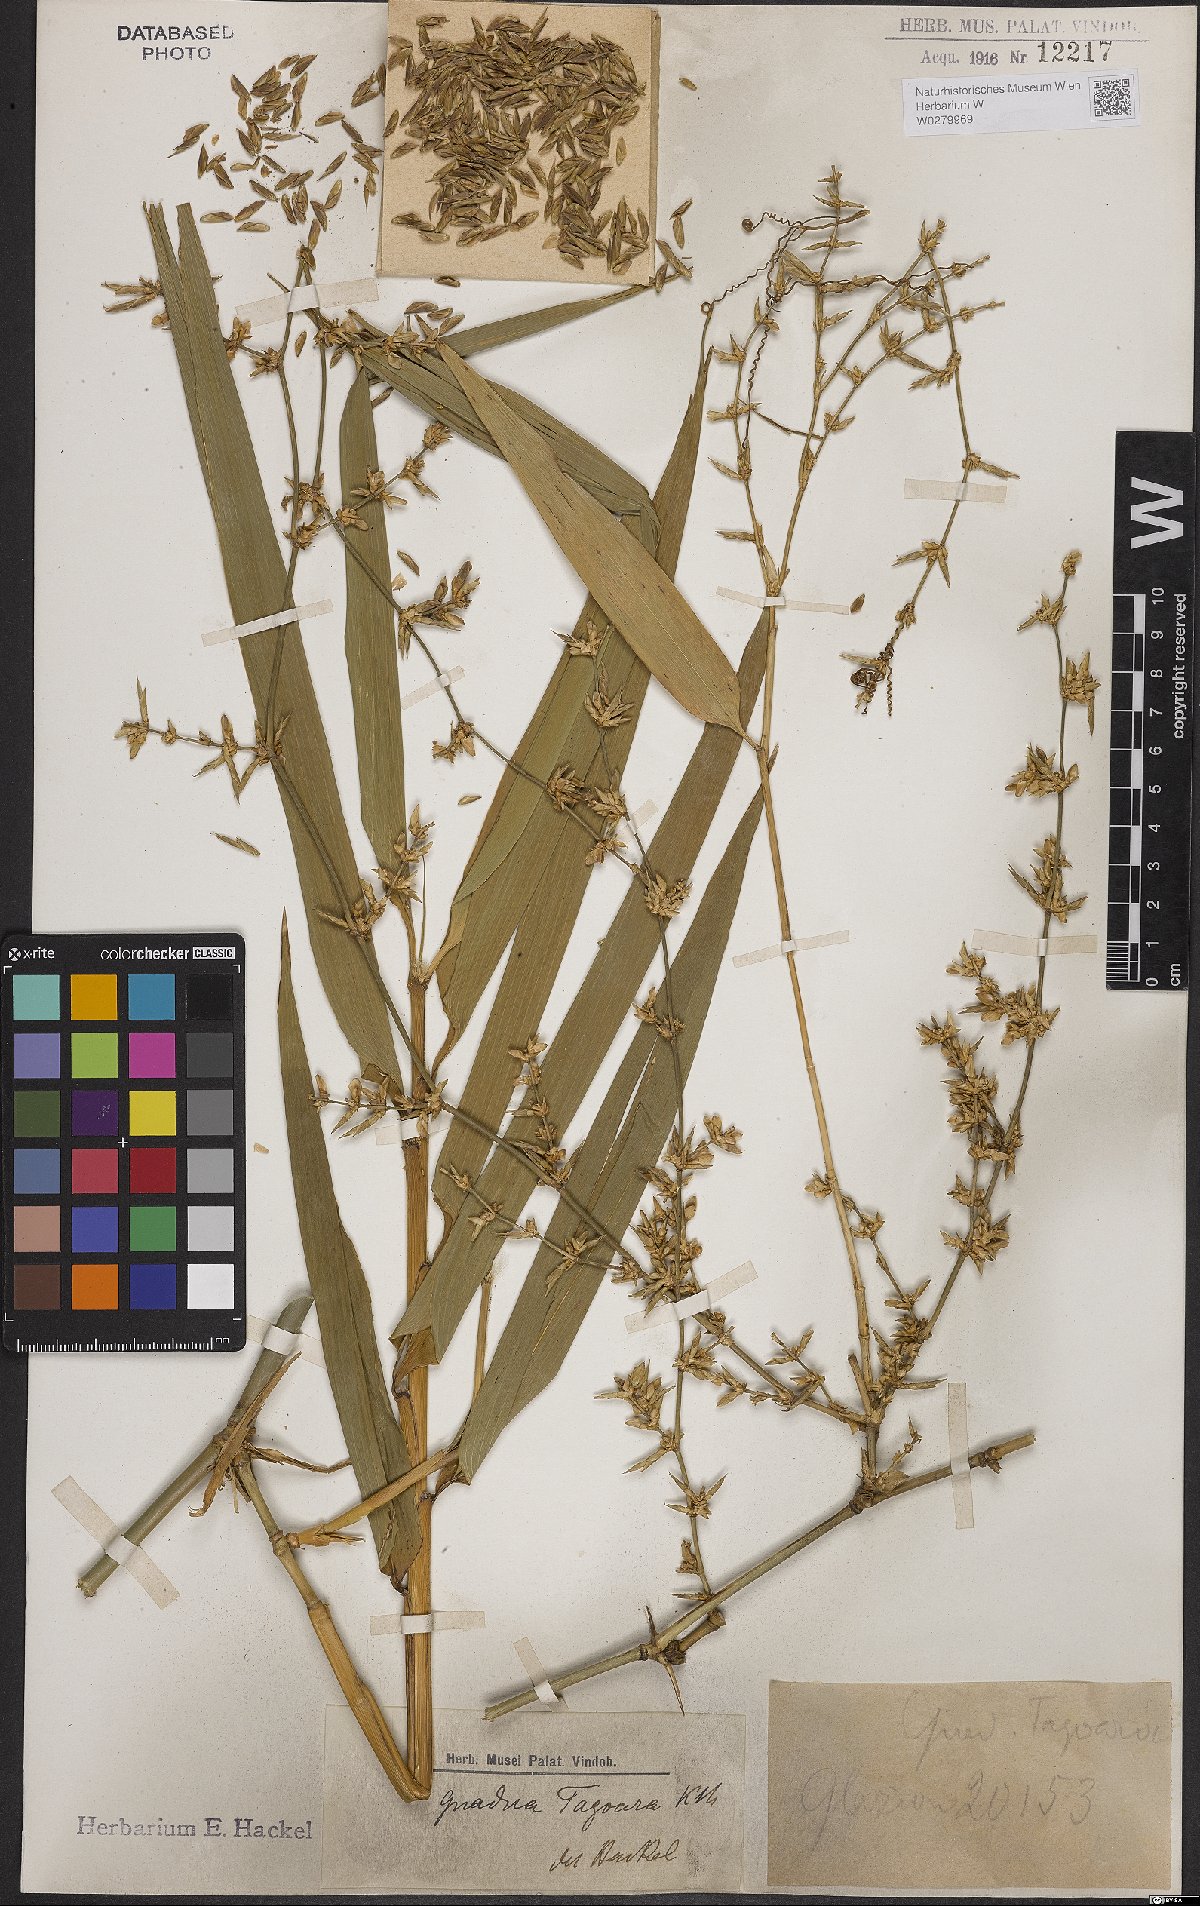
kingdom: Plantae
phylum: Tracheophyta
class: Liliopsida
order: Poales
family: Poaceae
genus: Guadua
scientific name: Guadua tagoara
